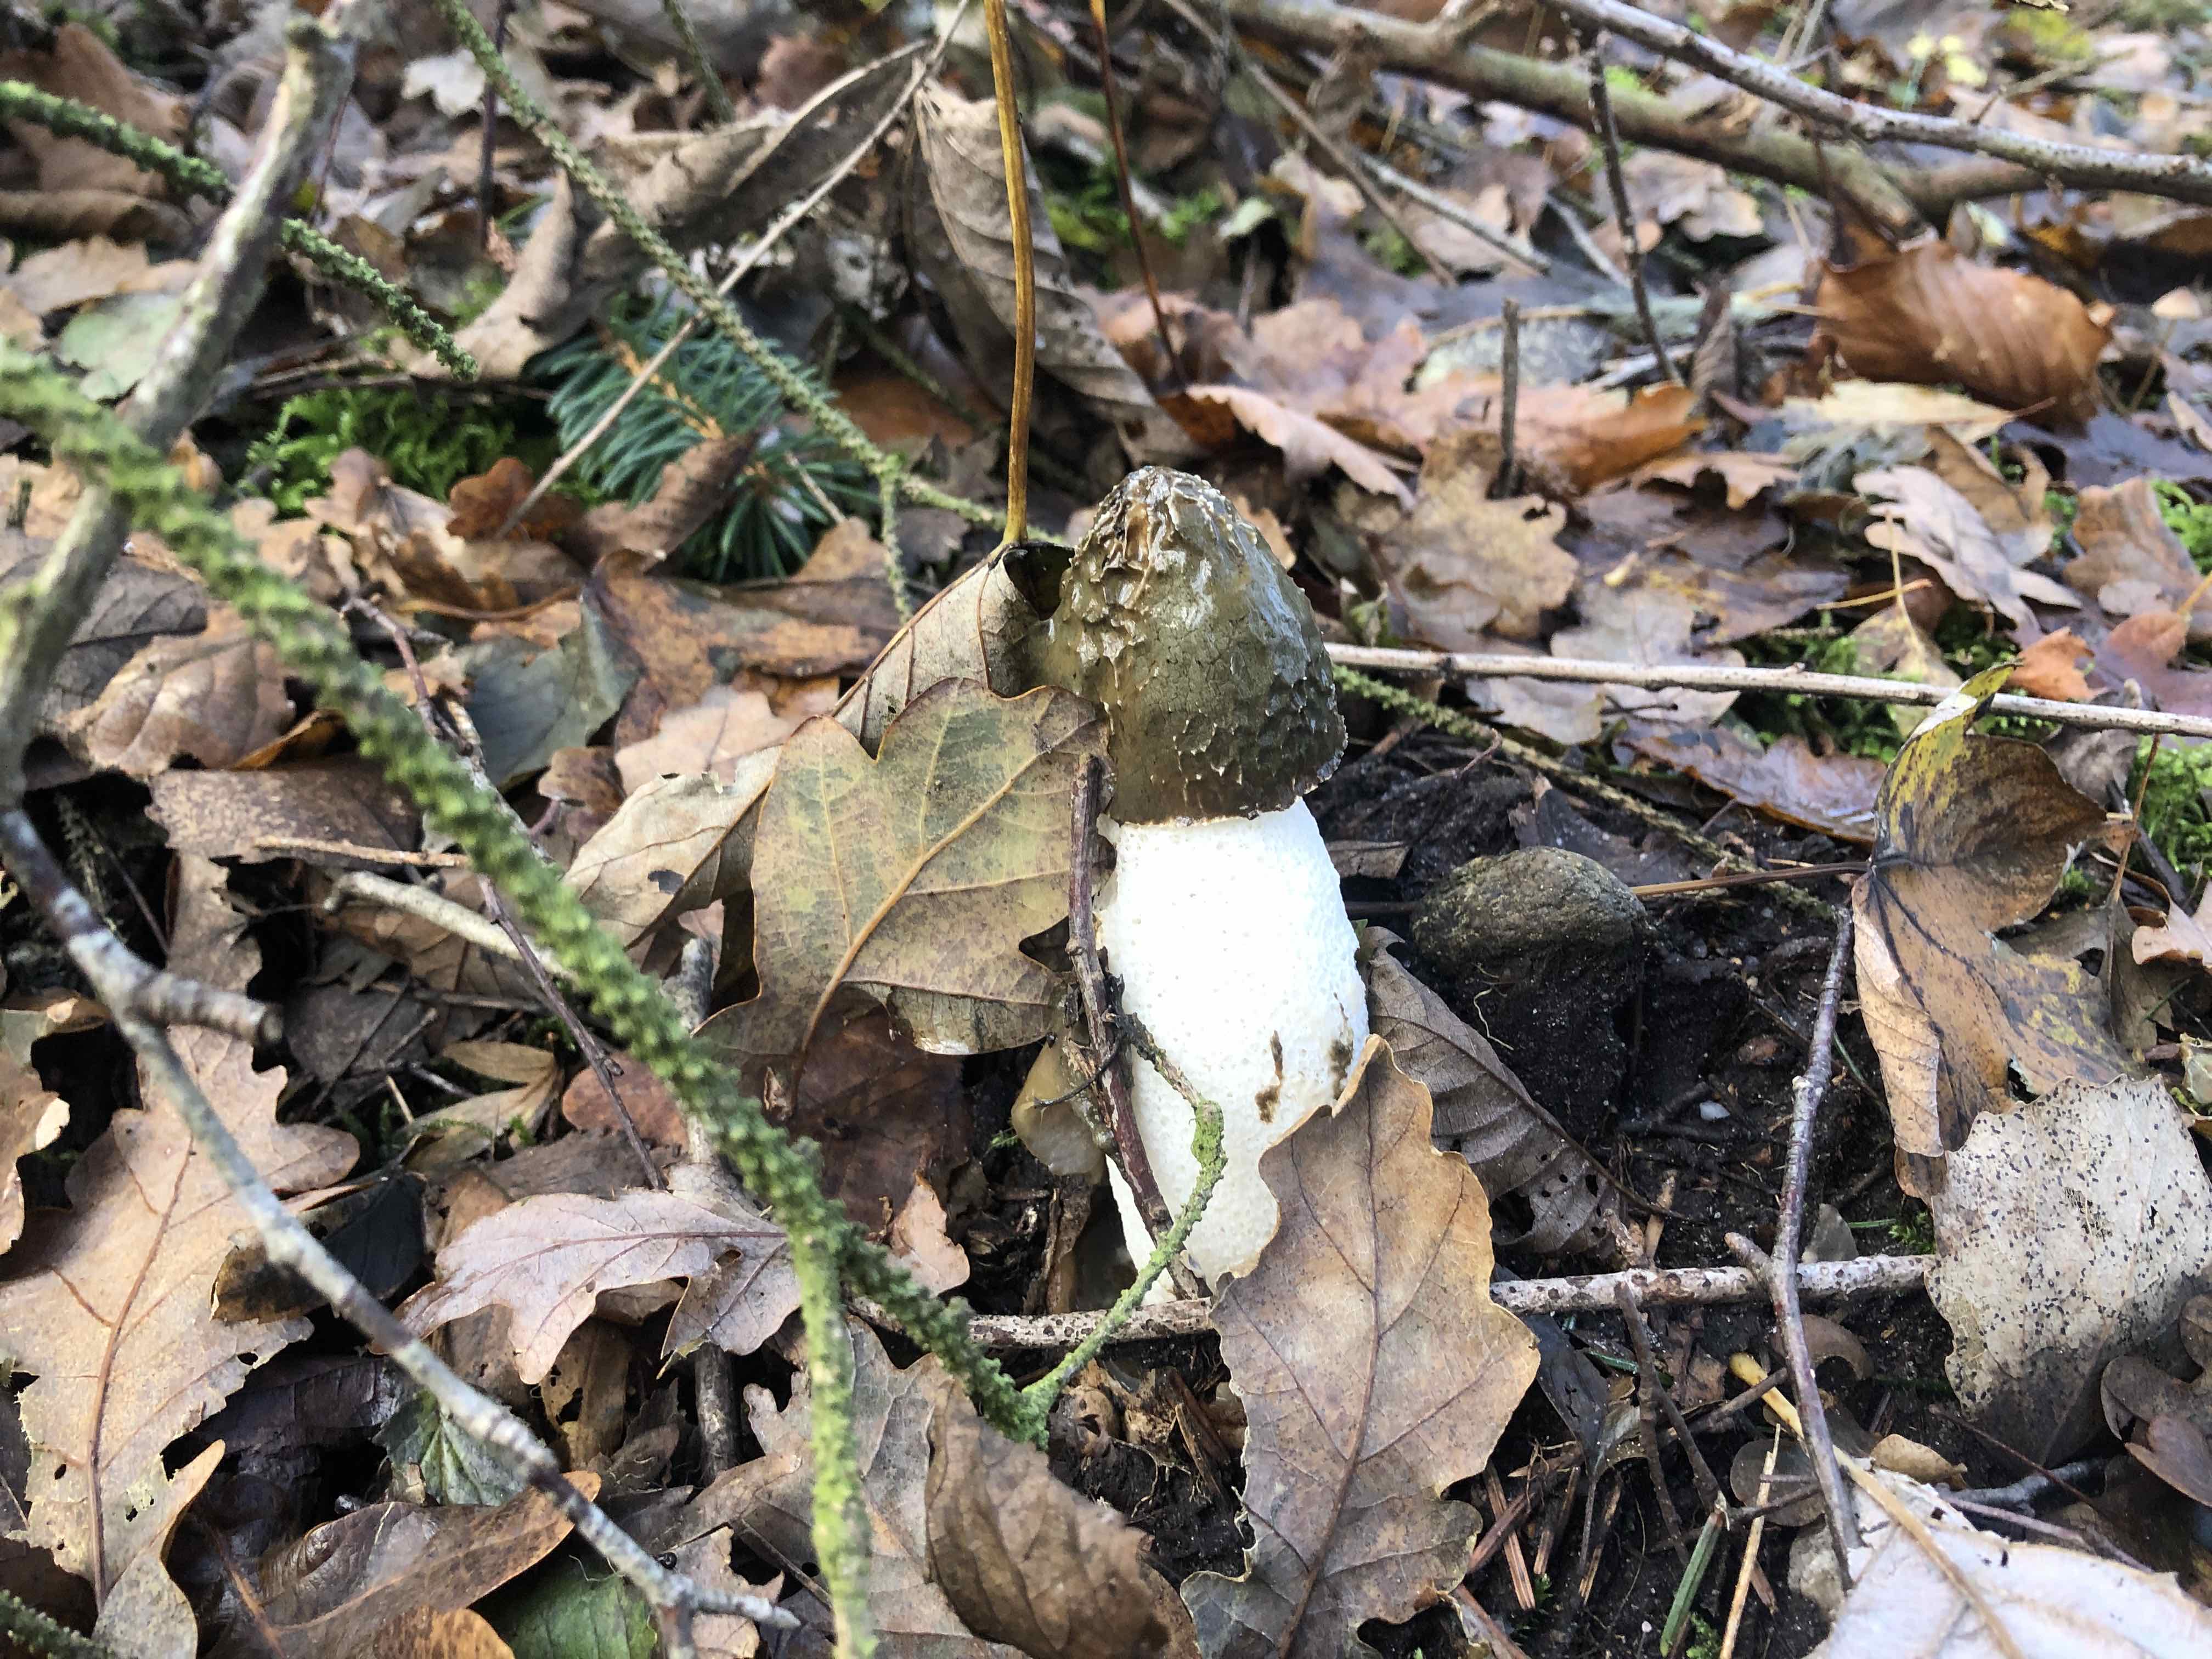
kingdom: Fungi
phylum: Basidiomycota
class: Agaricomycetes
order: Phallales
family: Phallaceae
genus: Phallus
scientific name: Phallus impudicus
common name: almindelig stinksvamp
